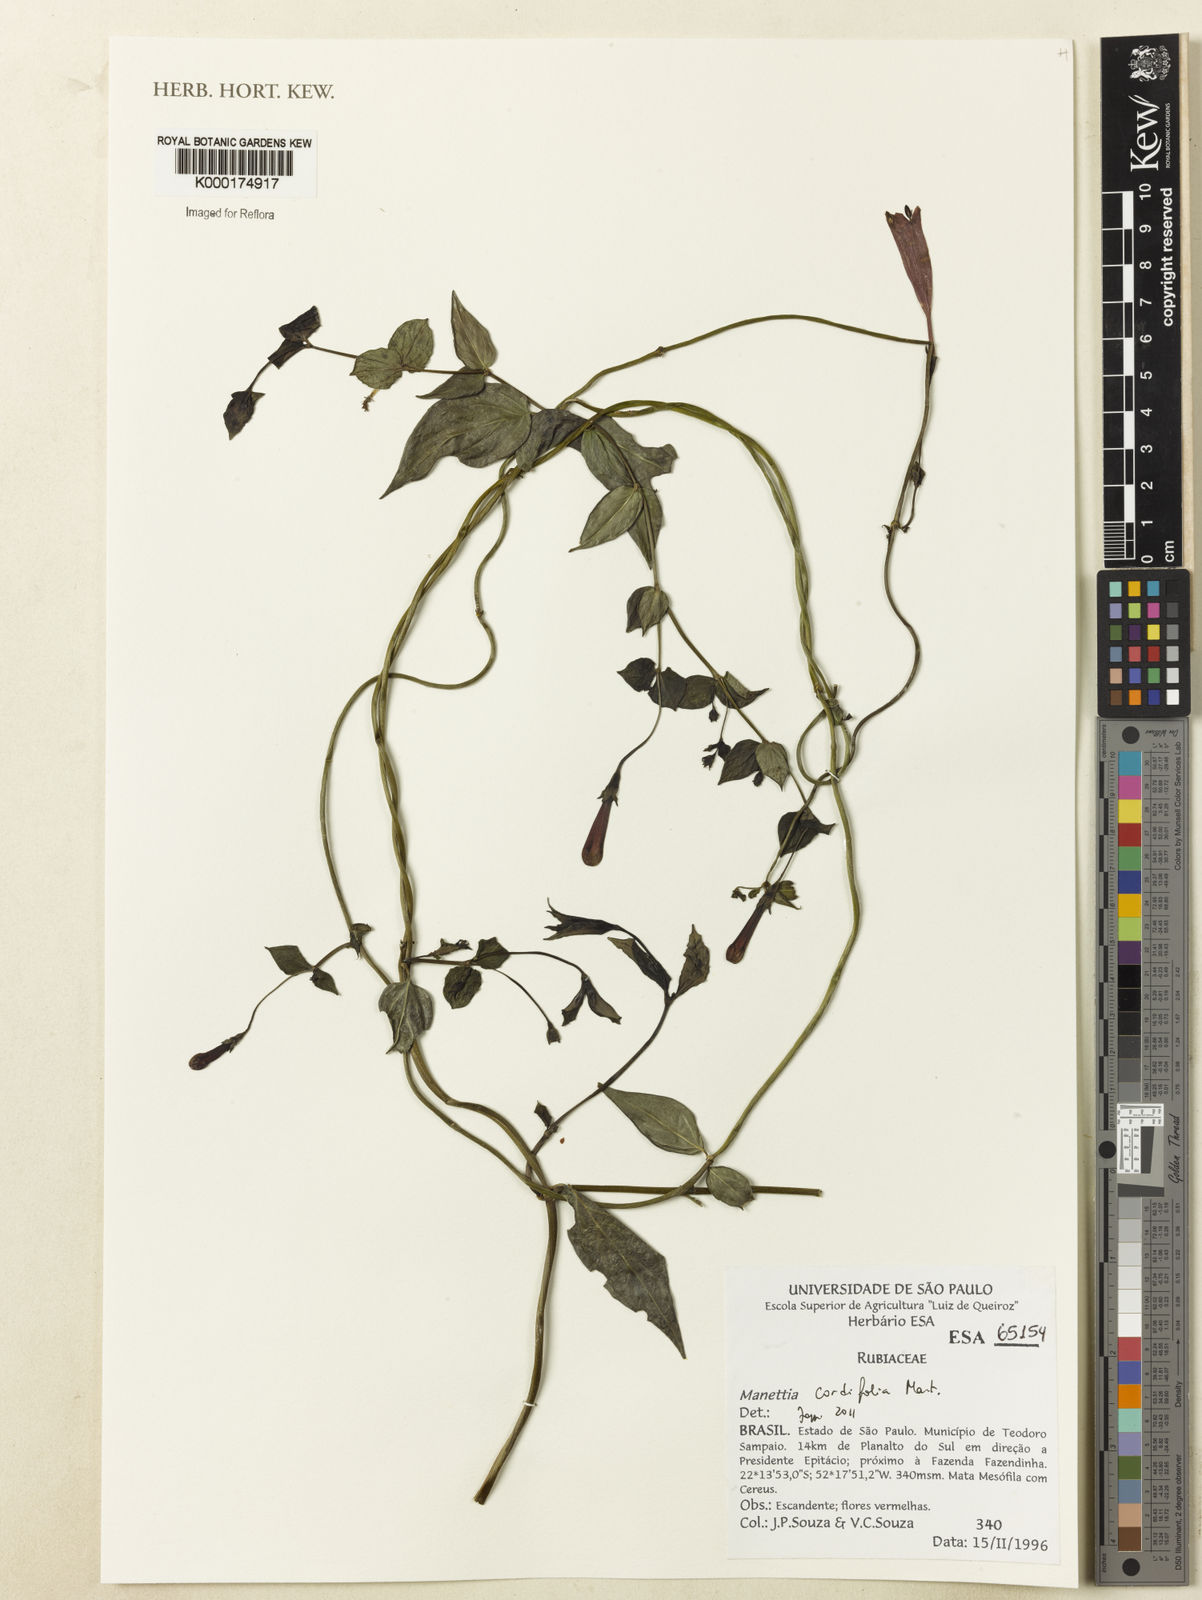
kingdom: Plantae
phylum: Tracheophyta
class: Magnoliopsida
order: Gentianales
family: Rubiaceae
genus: Manettia
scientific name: Manettia cordifolia
